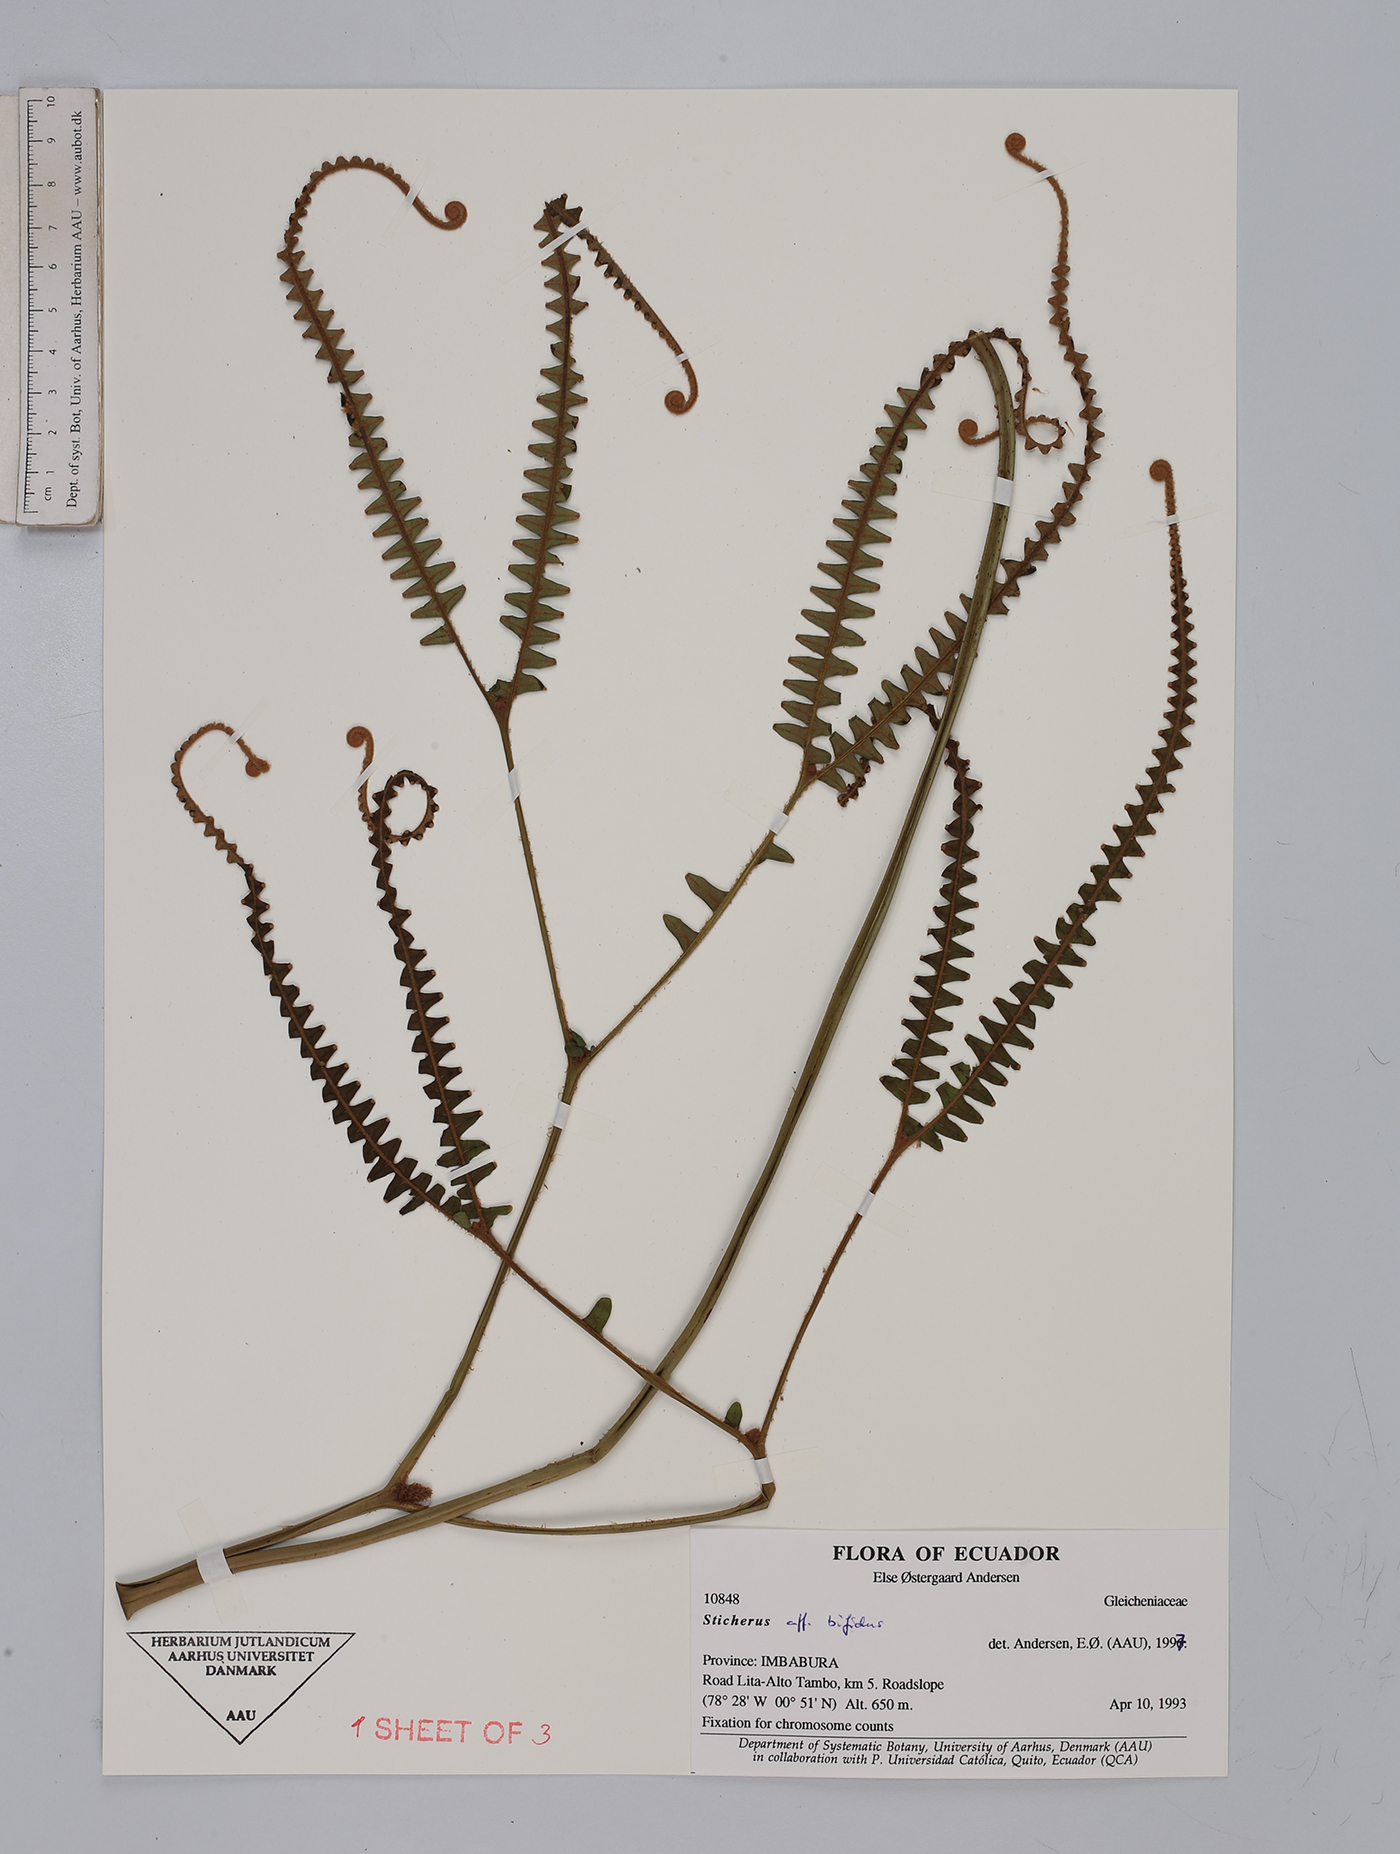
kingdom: Plantae
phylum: Tracheophyta
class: Polypodiopsida
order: Gleicheniales
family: Gleicheniaceae
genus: Sticherus
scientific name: Sticherus
